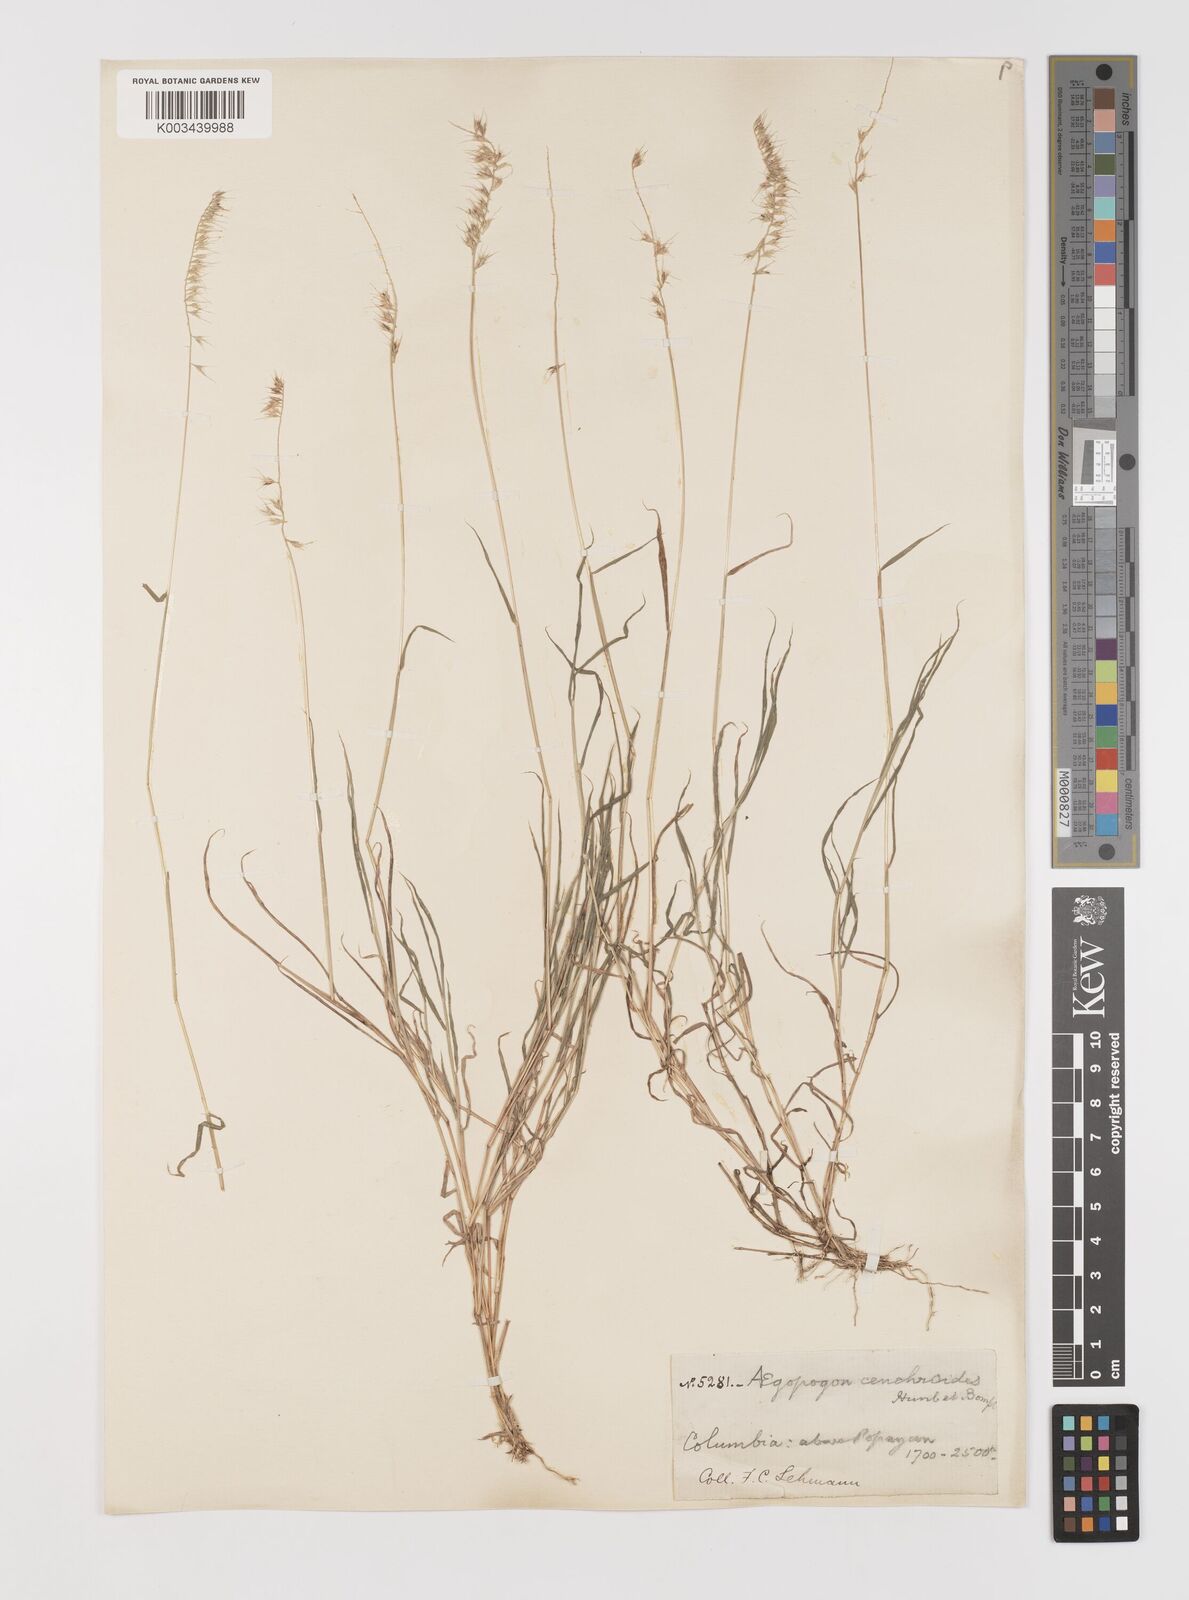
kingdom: Plantae
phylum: Tracheophyta
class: Liliopsida
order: Poales
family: Poaceae
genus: Muhlenbergia
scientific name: Muhlenbergia cenchroides
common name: Relaxgrass
